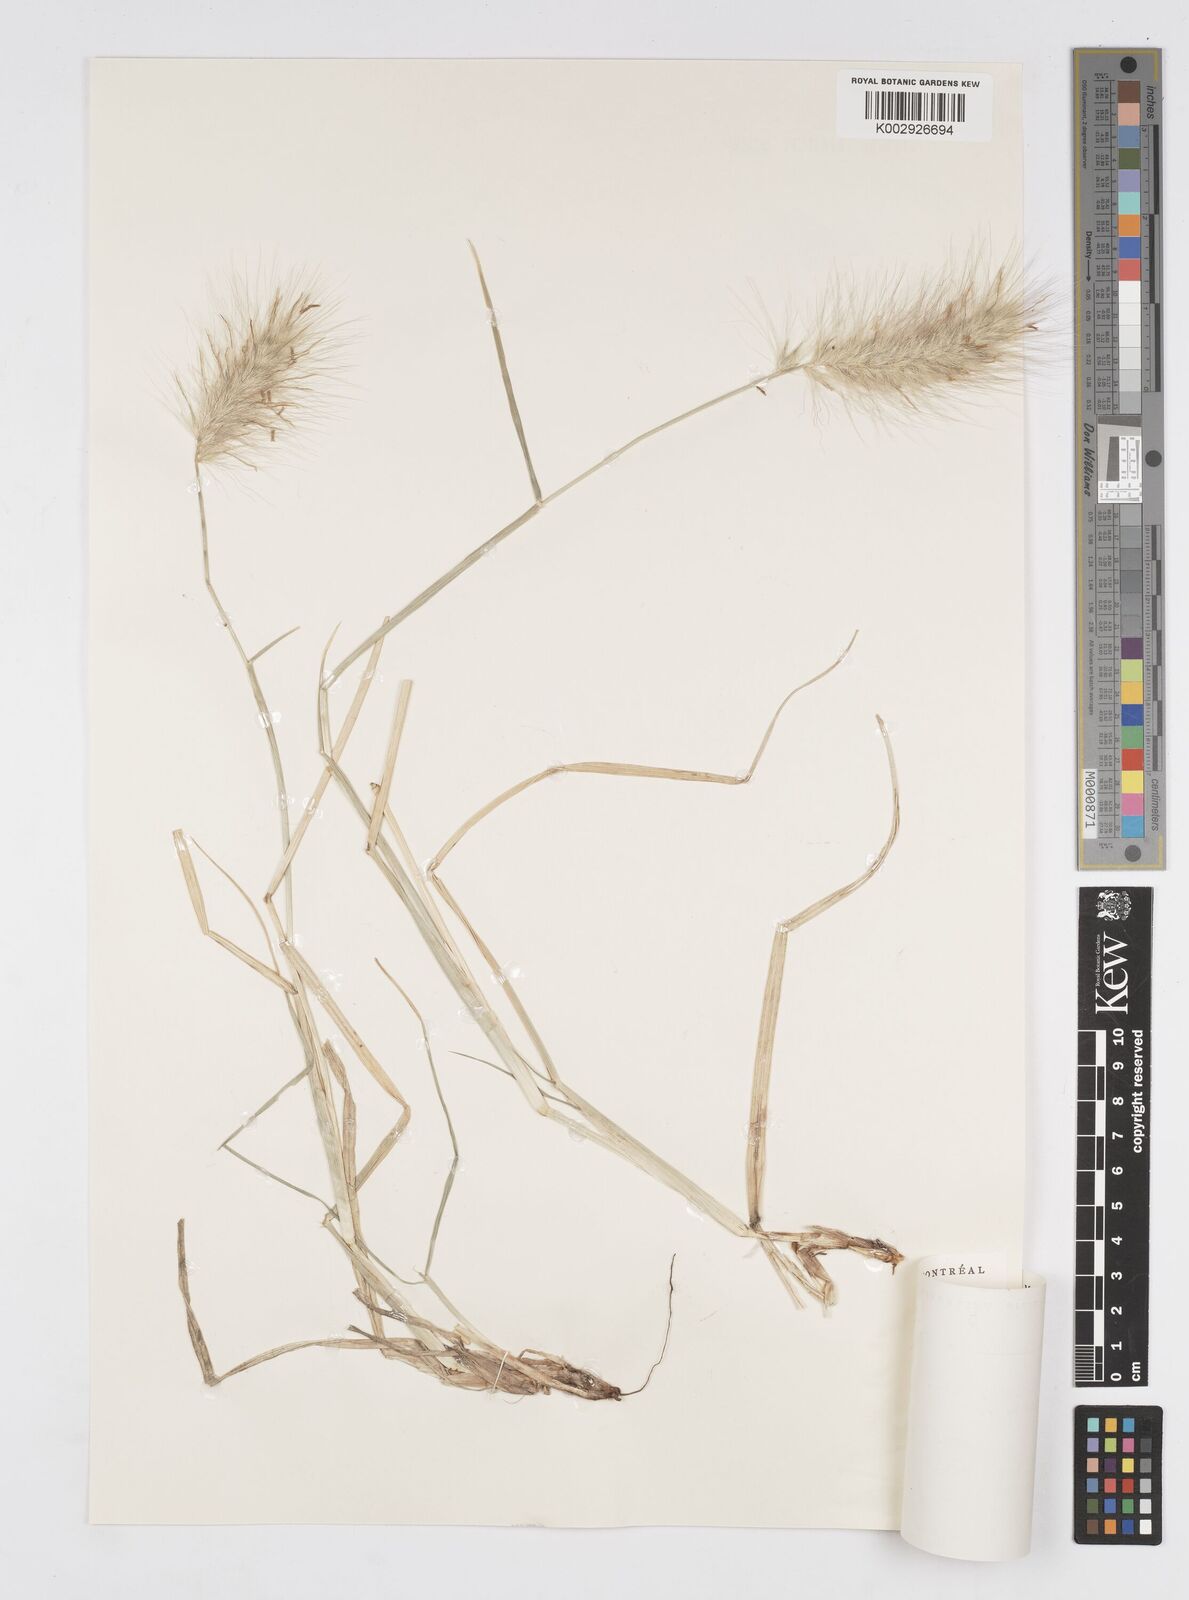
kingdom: Plantae
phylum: Tracheophyta
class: Liliopsida
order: Poales
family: Poaceae
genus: Cenchrus
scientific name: Cenchrus longisetus
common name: Feathertop
